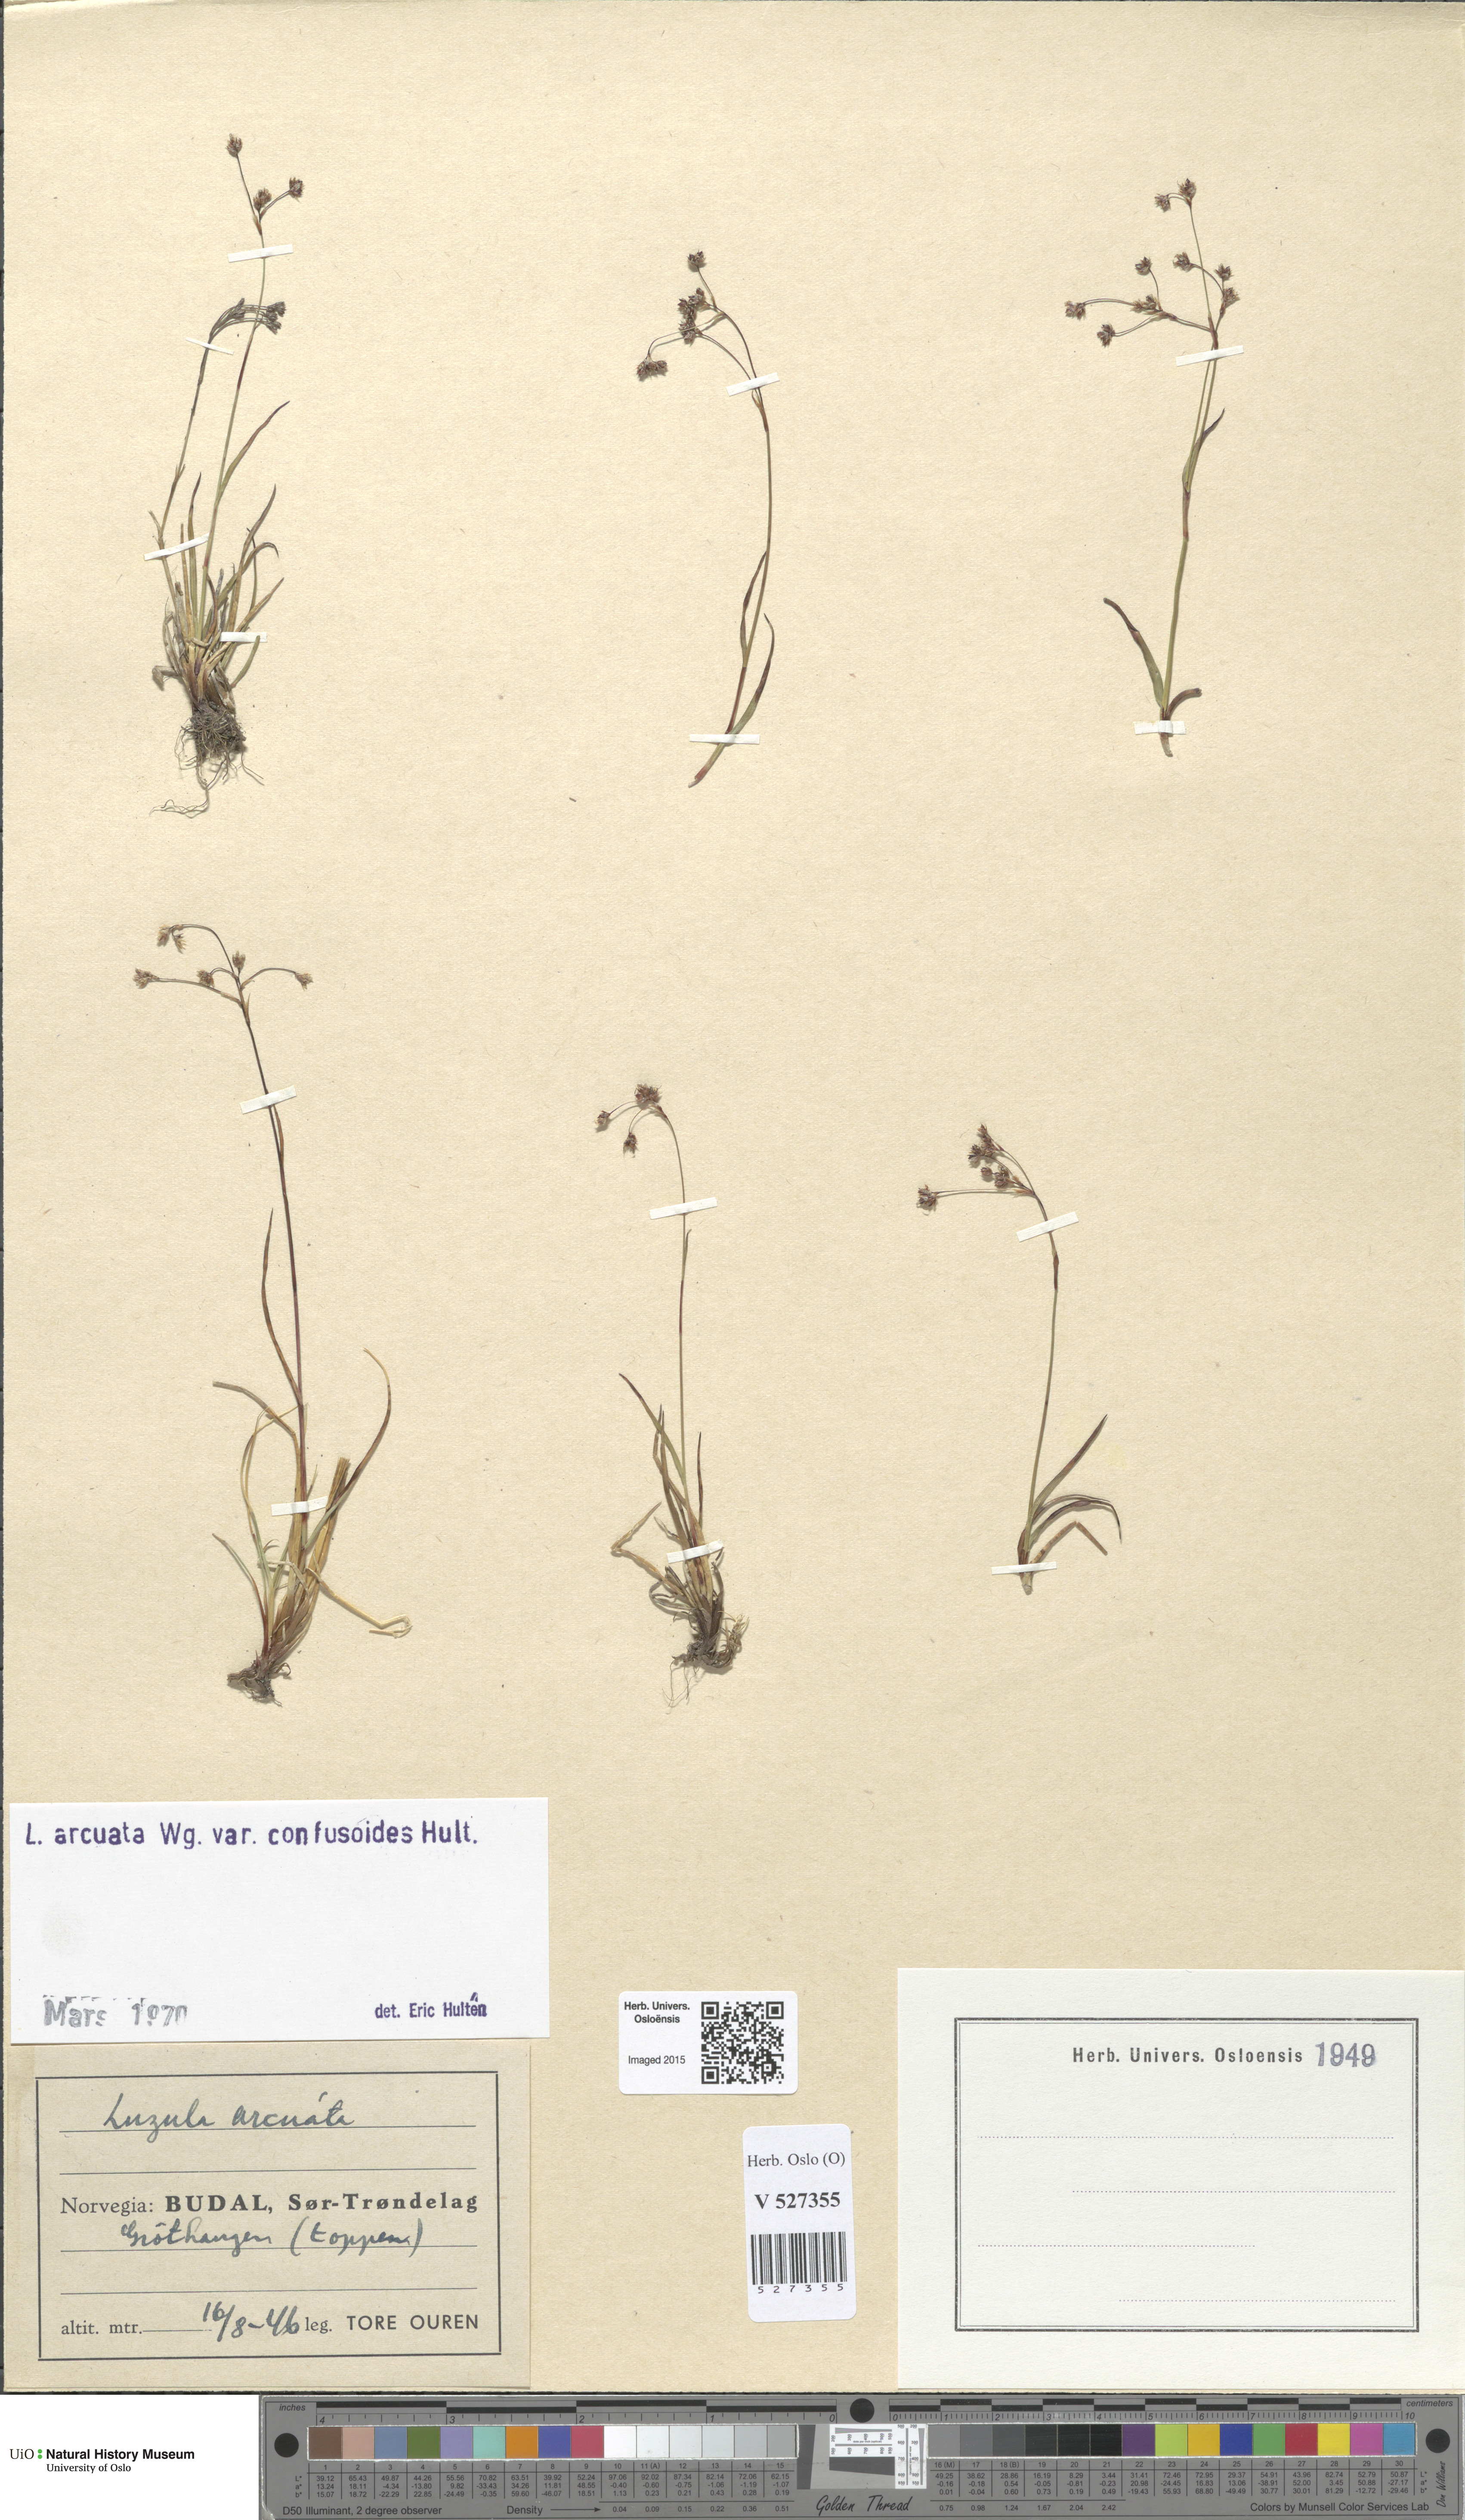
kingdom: Plantae
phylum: Tracheophyta
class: Liliopsida
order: Poales
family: Juncaceae
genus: Luzula
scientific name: Luzula arcuata
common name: Curved wood-rush
